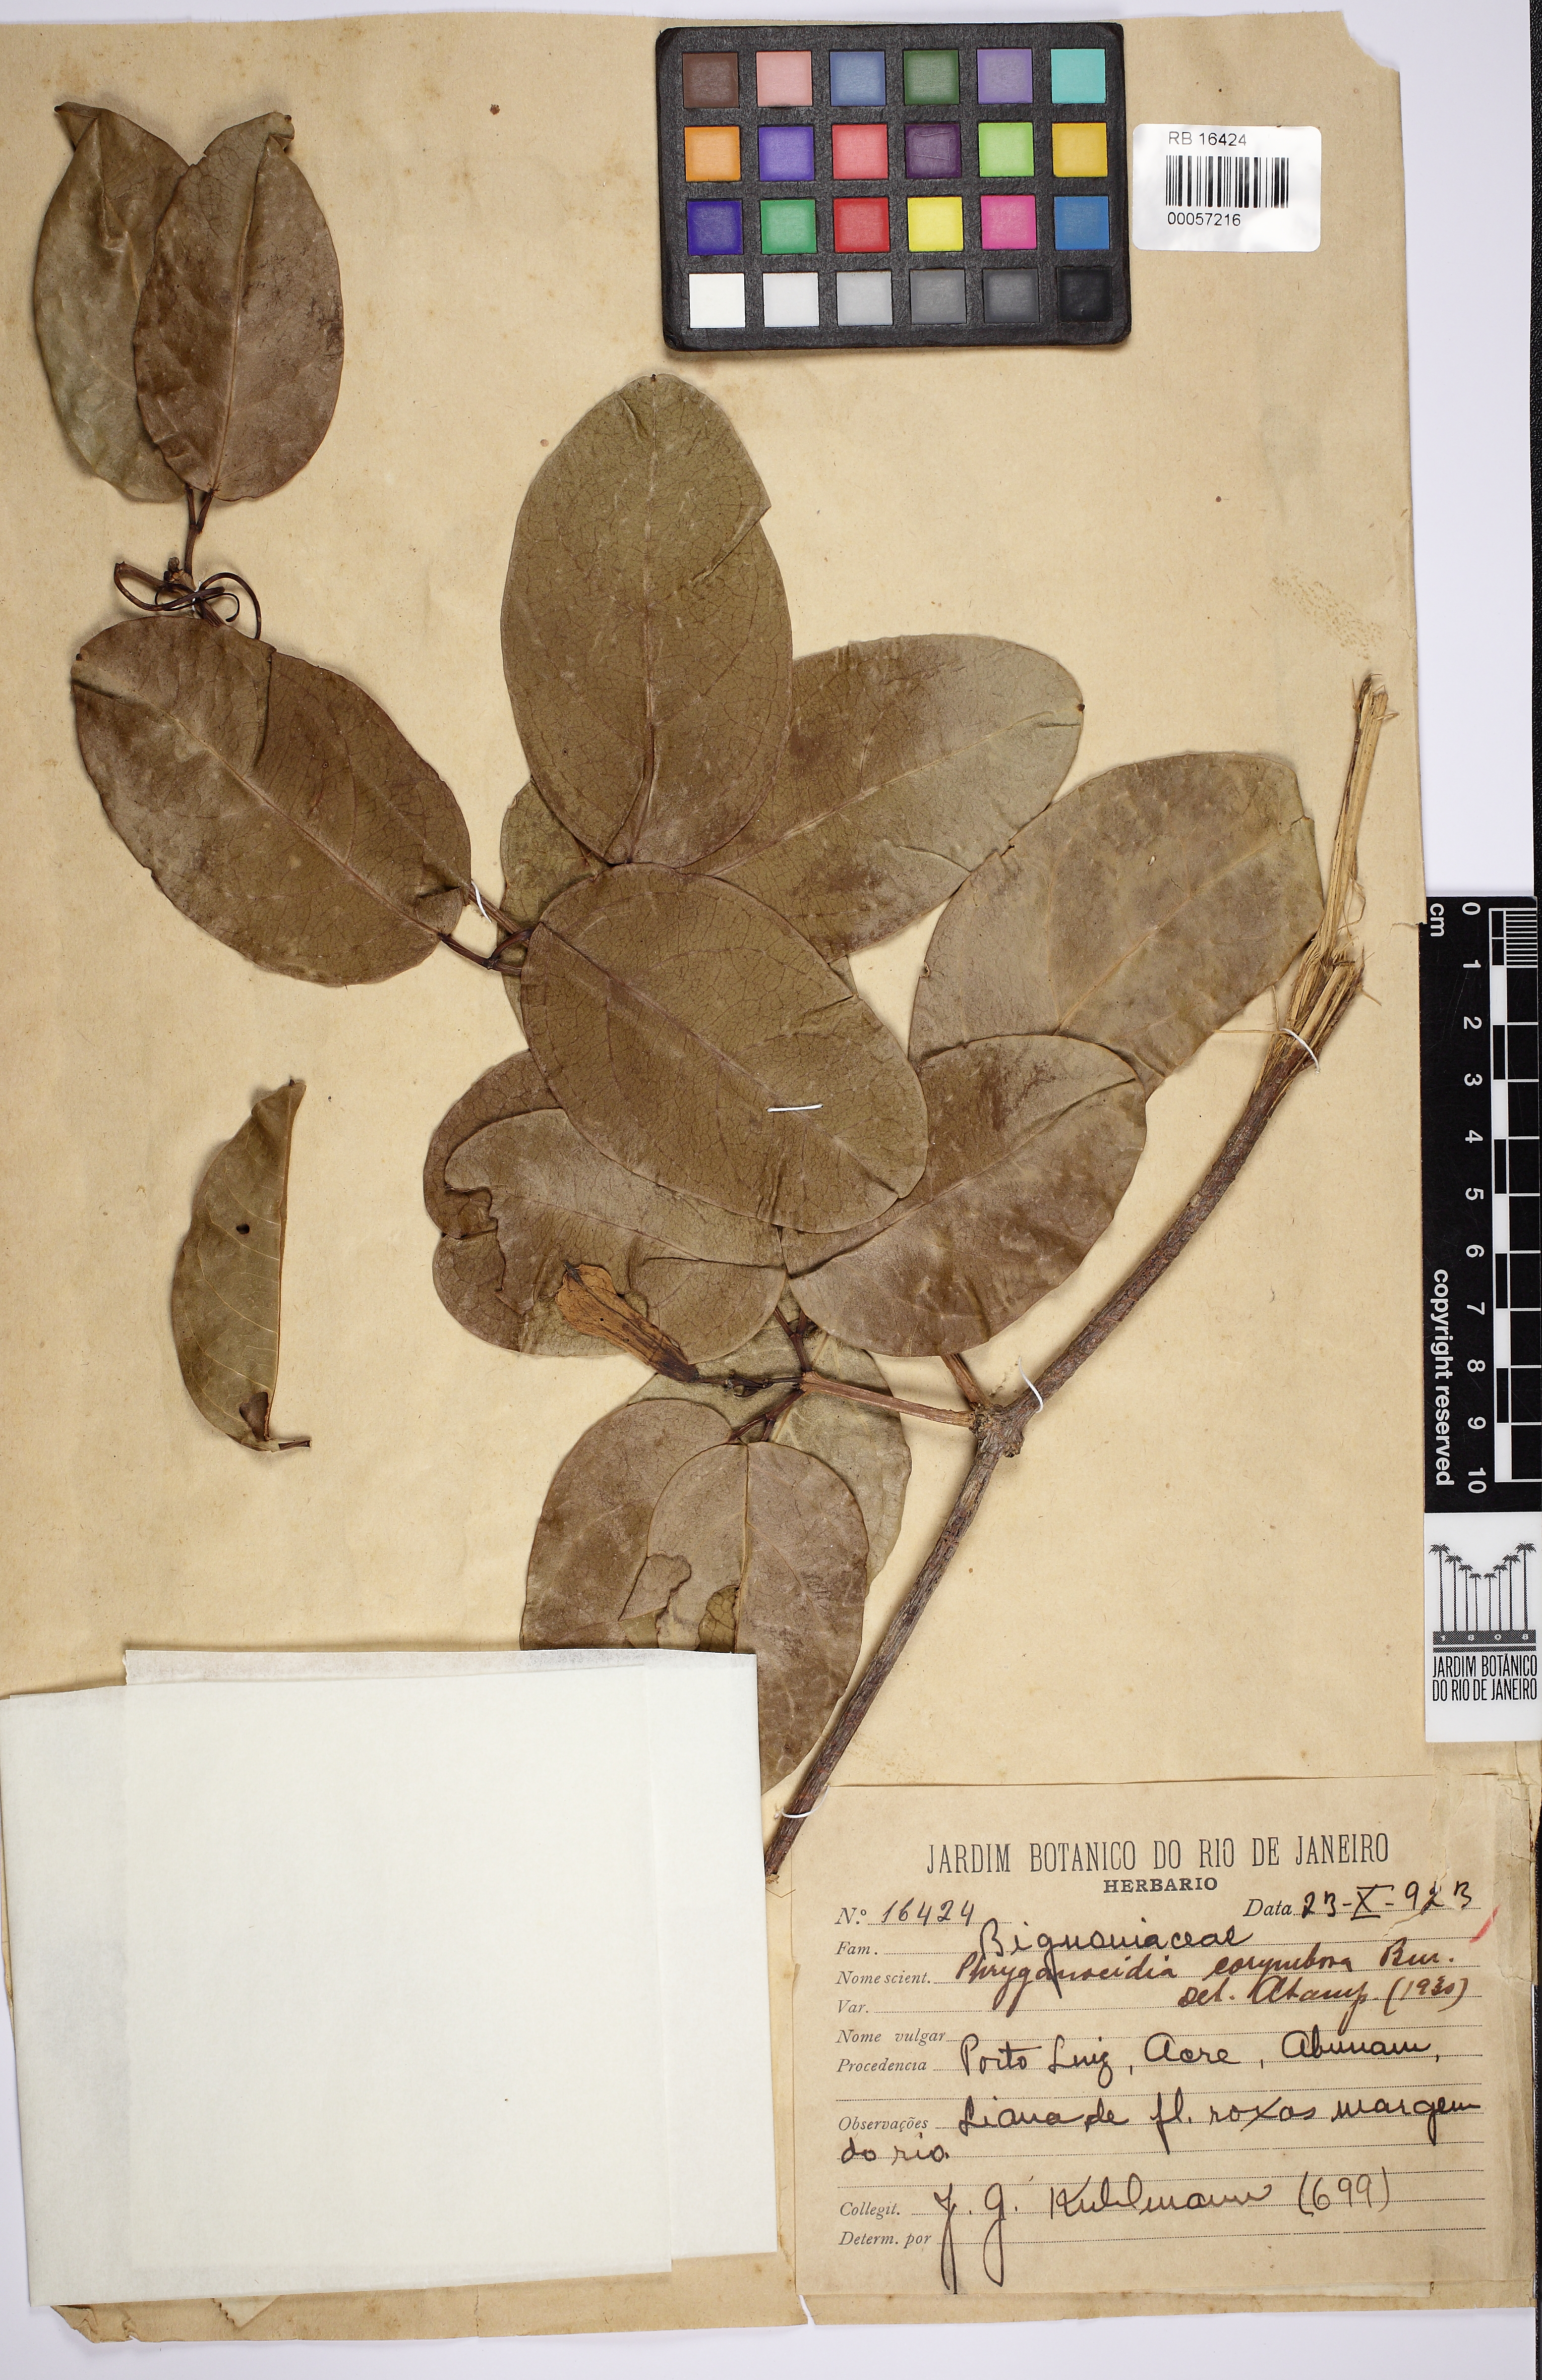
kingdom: Plantae
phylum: Tracheophyta
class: Magnoliopsida
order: Lamiales
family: Bignoniaceae
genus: Bignonia
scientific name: Bignonia corymbosa
